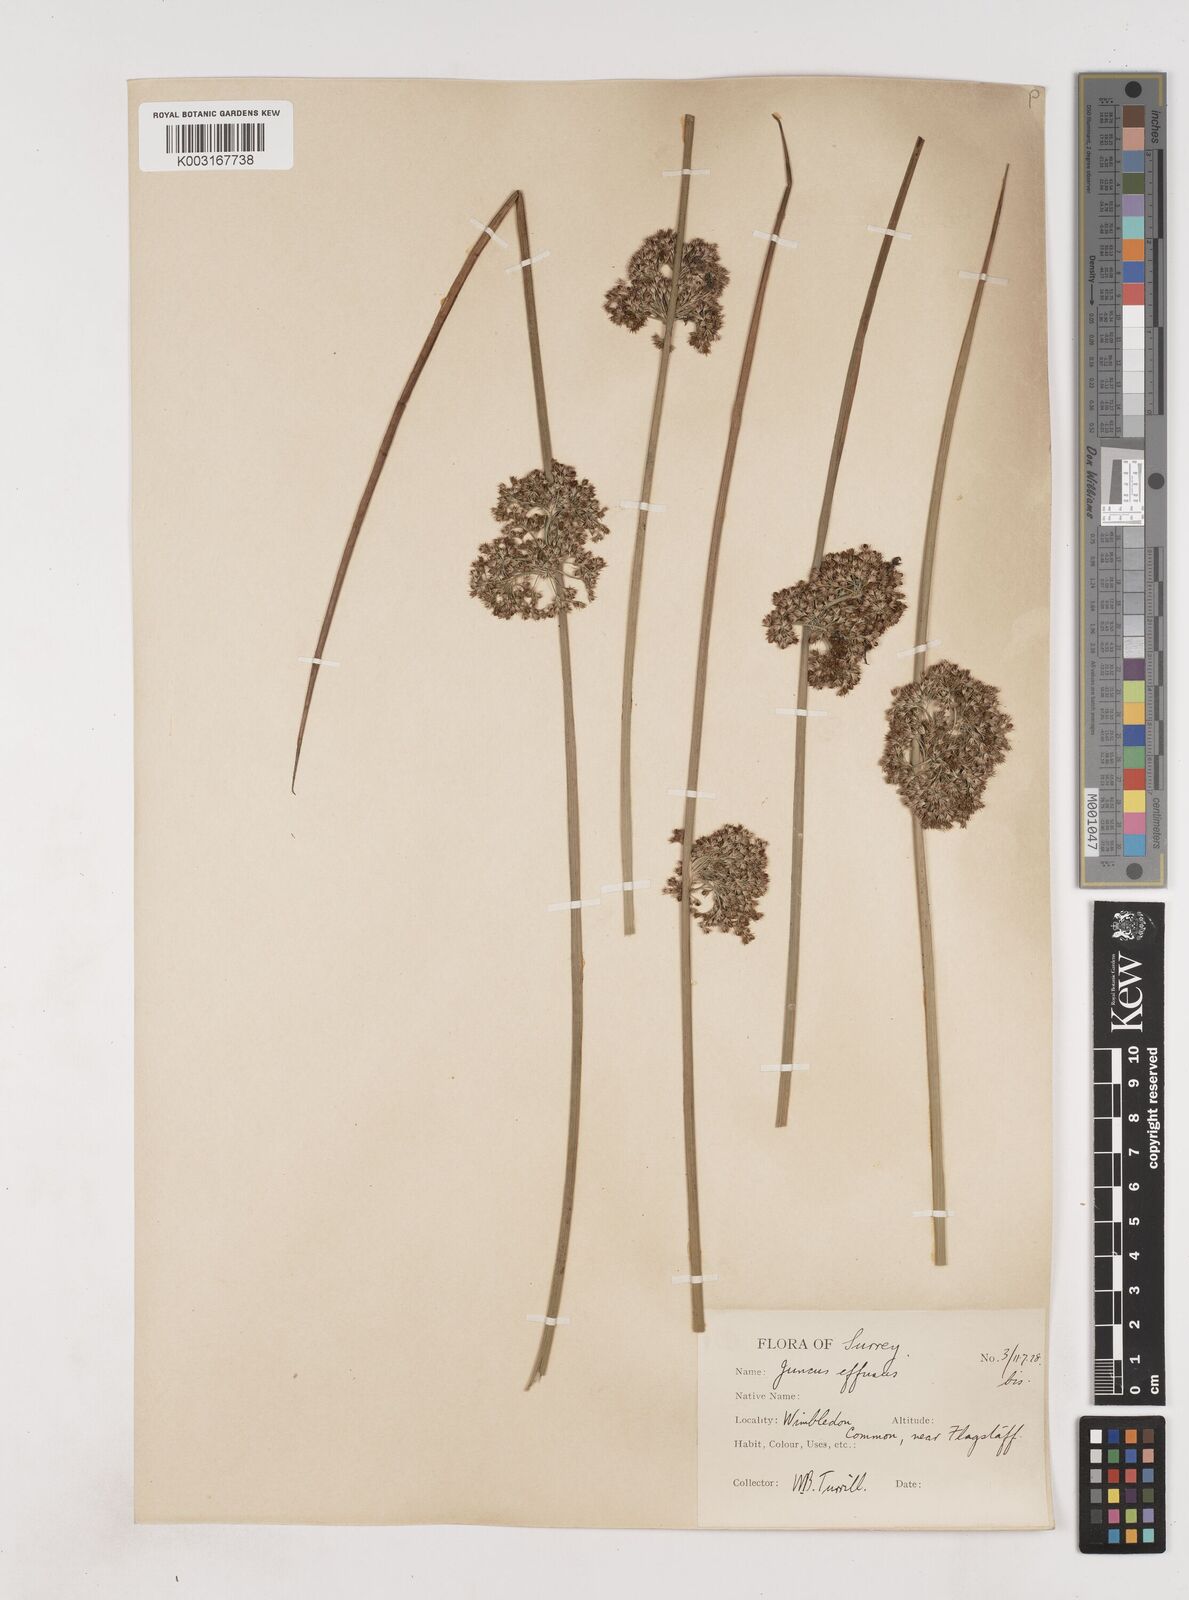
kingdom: Plantae
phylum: Tracheophyta
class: Liliopsida
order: Poales
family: Juncaceae
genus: Juncus
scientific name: Juncus effusus
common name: Soft rush
